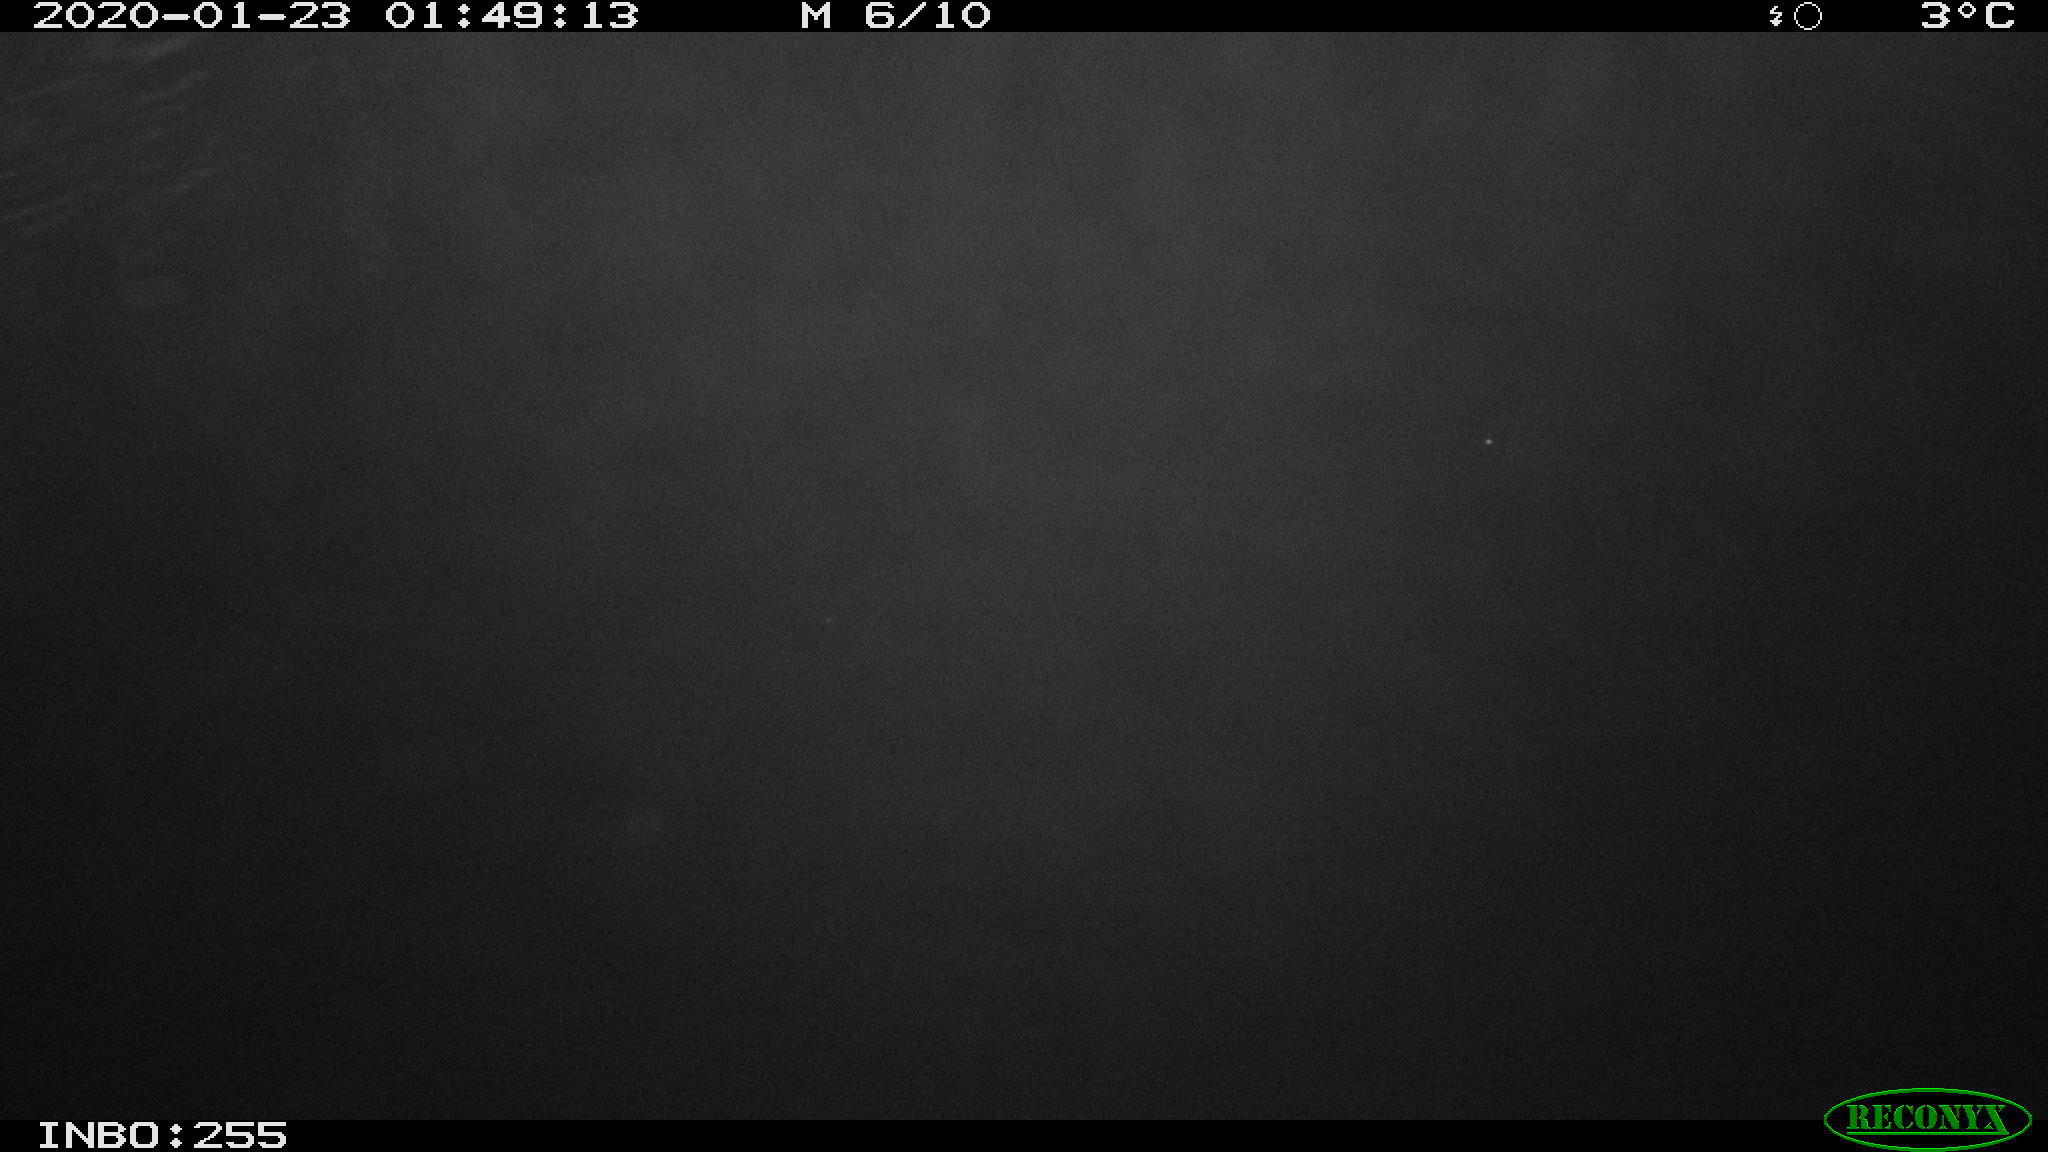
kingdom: Animalia
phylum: Chordata
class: Mammalia
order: Rodentia
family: Cricetidae
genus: Ondatra
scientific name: Ondatra zibethicus
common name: Muskrat
